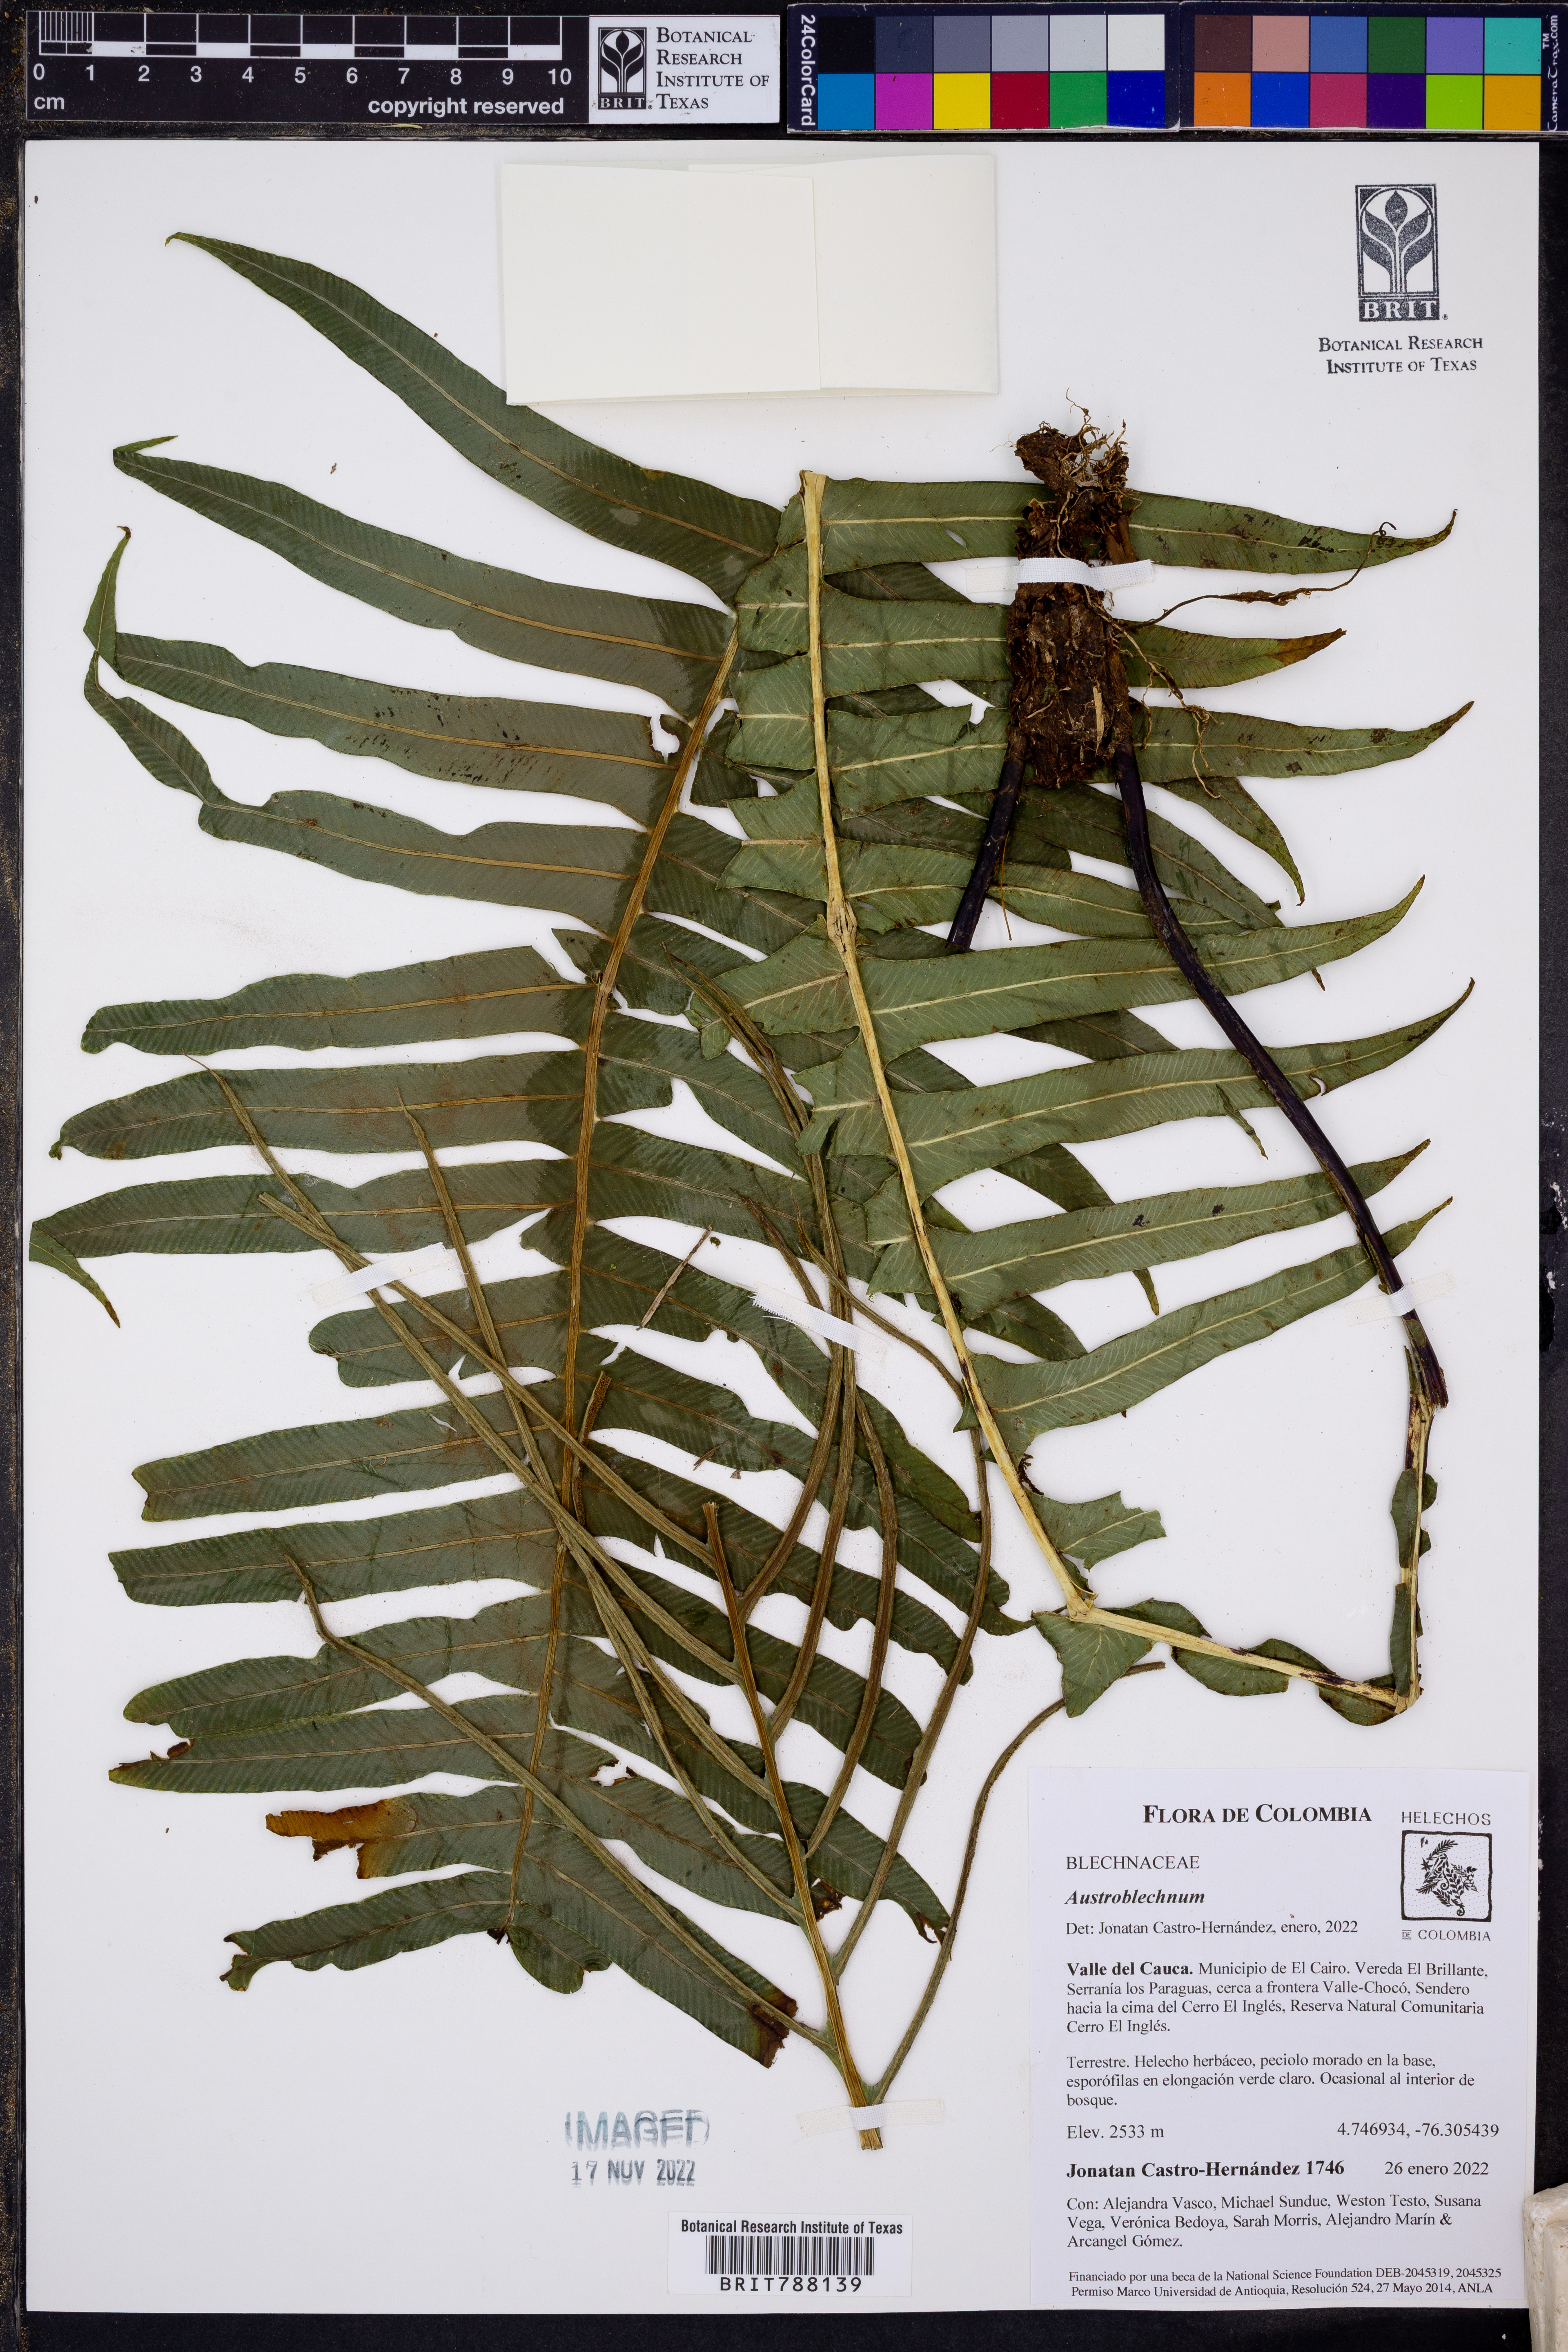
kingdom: Plantae
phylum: Tracheophyta
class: Polypodiopsida
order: Polypodiales
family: Blechnaceae
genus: Austroblechnum
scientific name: Austroblechnum wardiae
